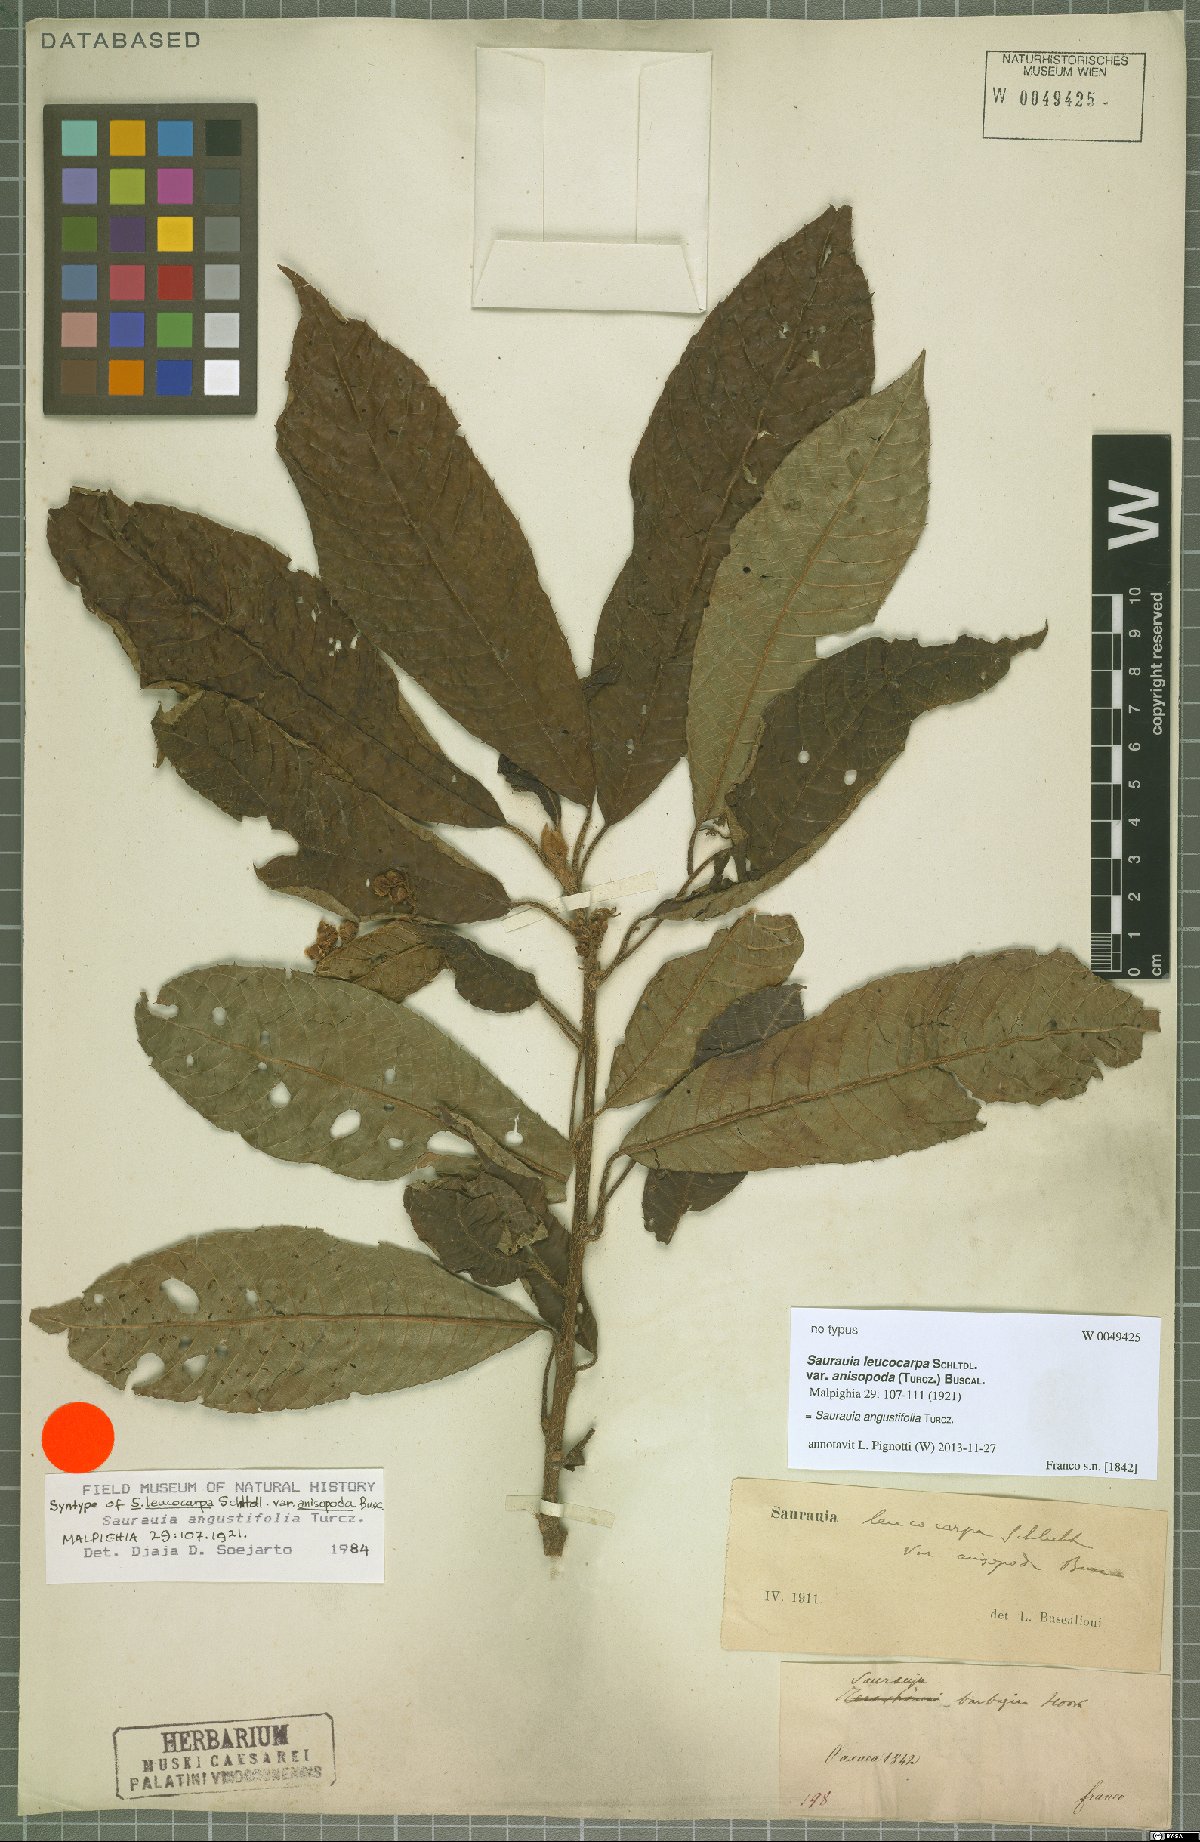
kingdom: Plantae
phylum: Tracheophyta
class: Magnoliopsida
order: Ericales
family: Actinidiaceae
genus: Saurauia
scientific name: Saurauia angustifolia
